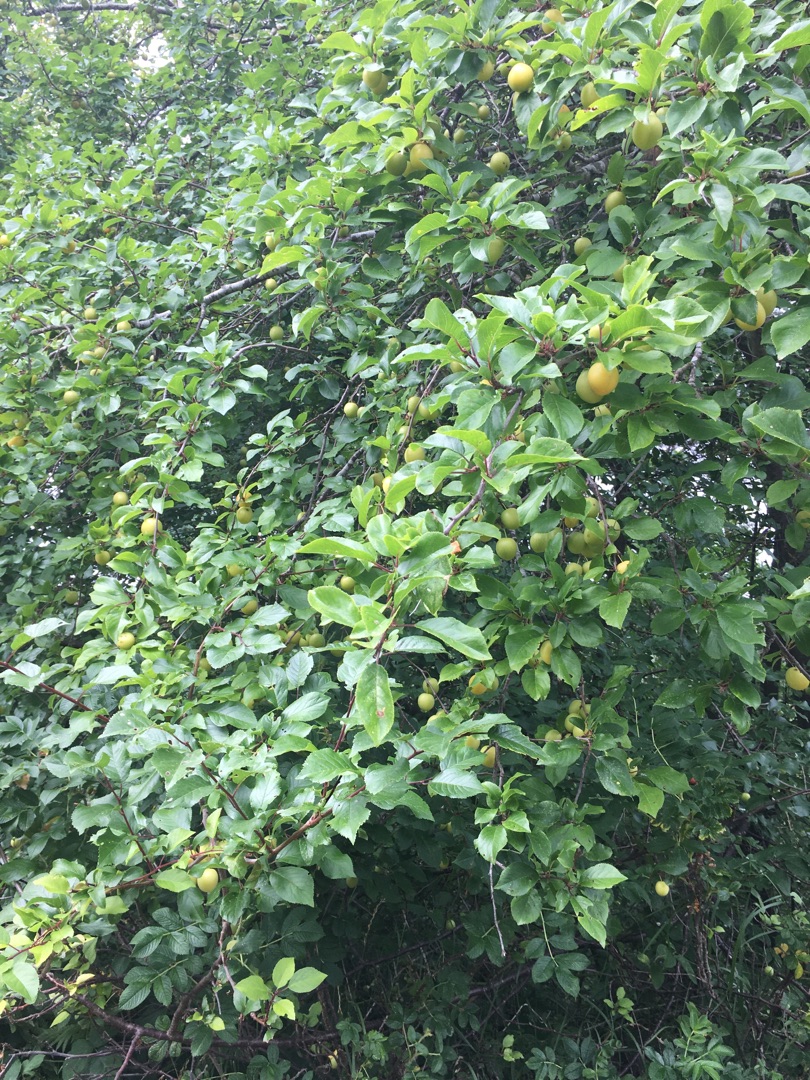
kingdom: Plantae
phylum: Tracheophyta
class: Magnoliopsida
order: Rosales
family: Rosaceae
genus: Prunus
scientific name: Prunus cerasifera
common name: Mirabel
